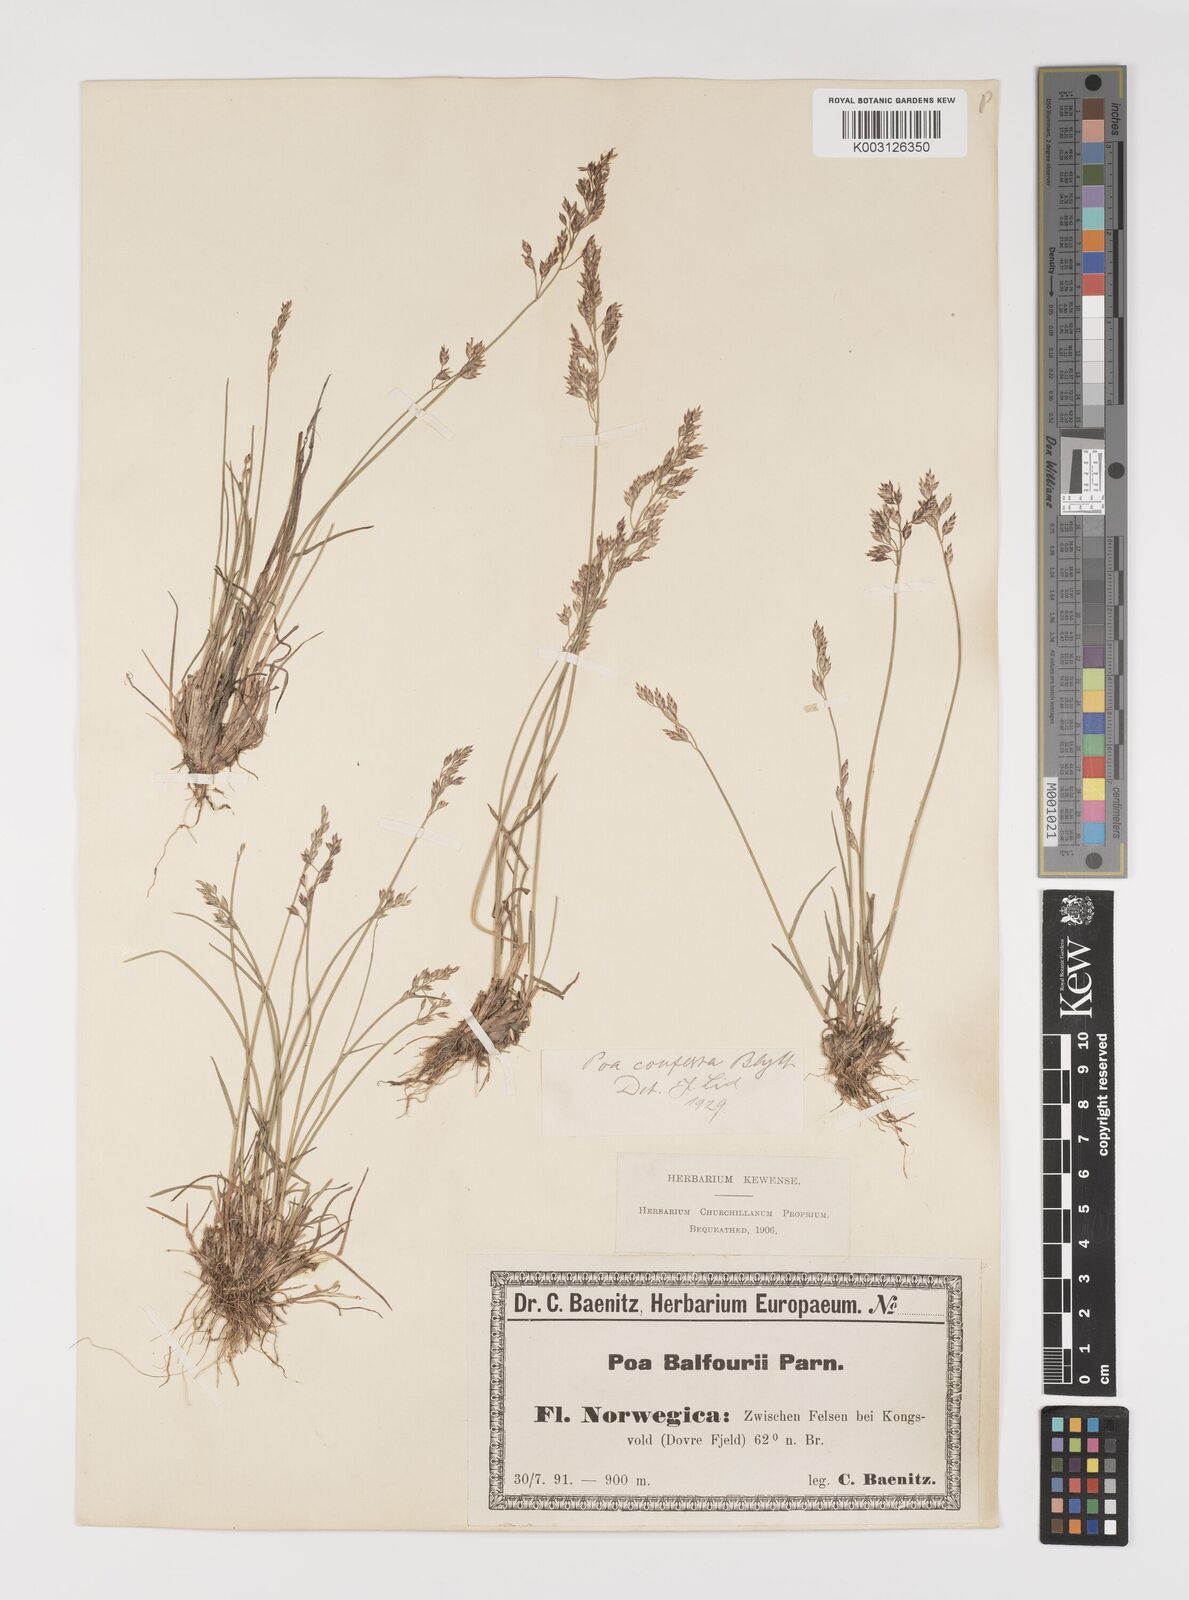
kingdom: Plantae
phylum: Tracheophyta
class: Liliopsida
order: Poales
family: Poaceae
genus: Poa
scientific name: Poa glauca
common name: Glaucous bluegrass
